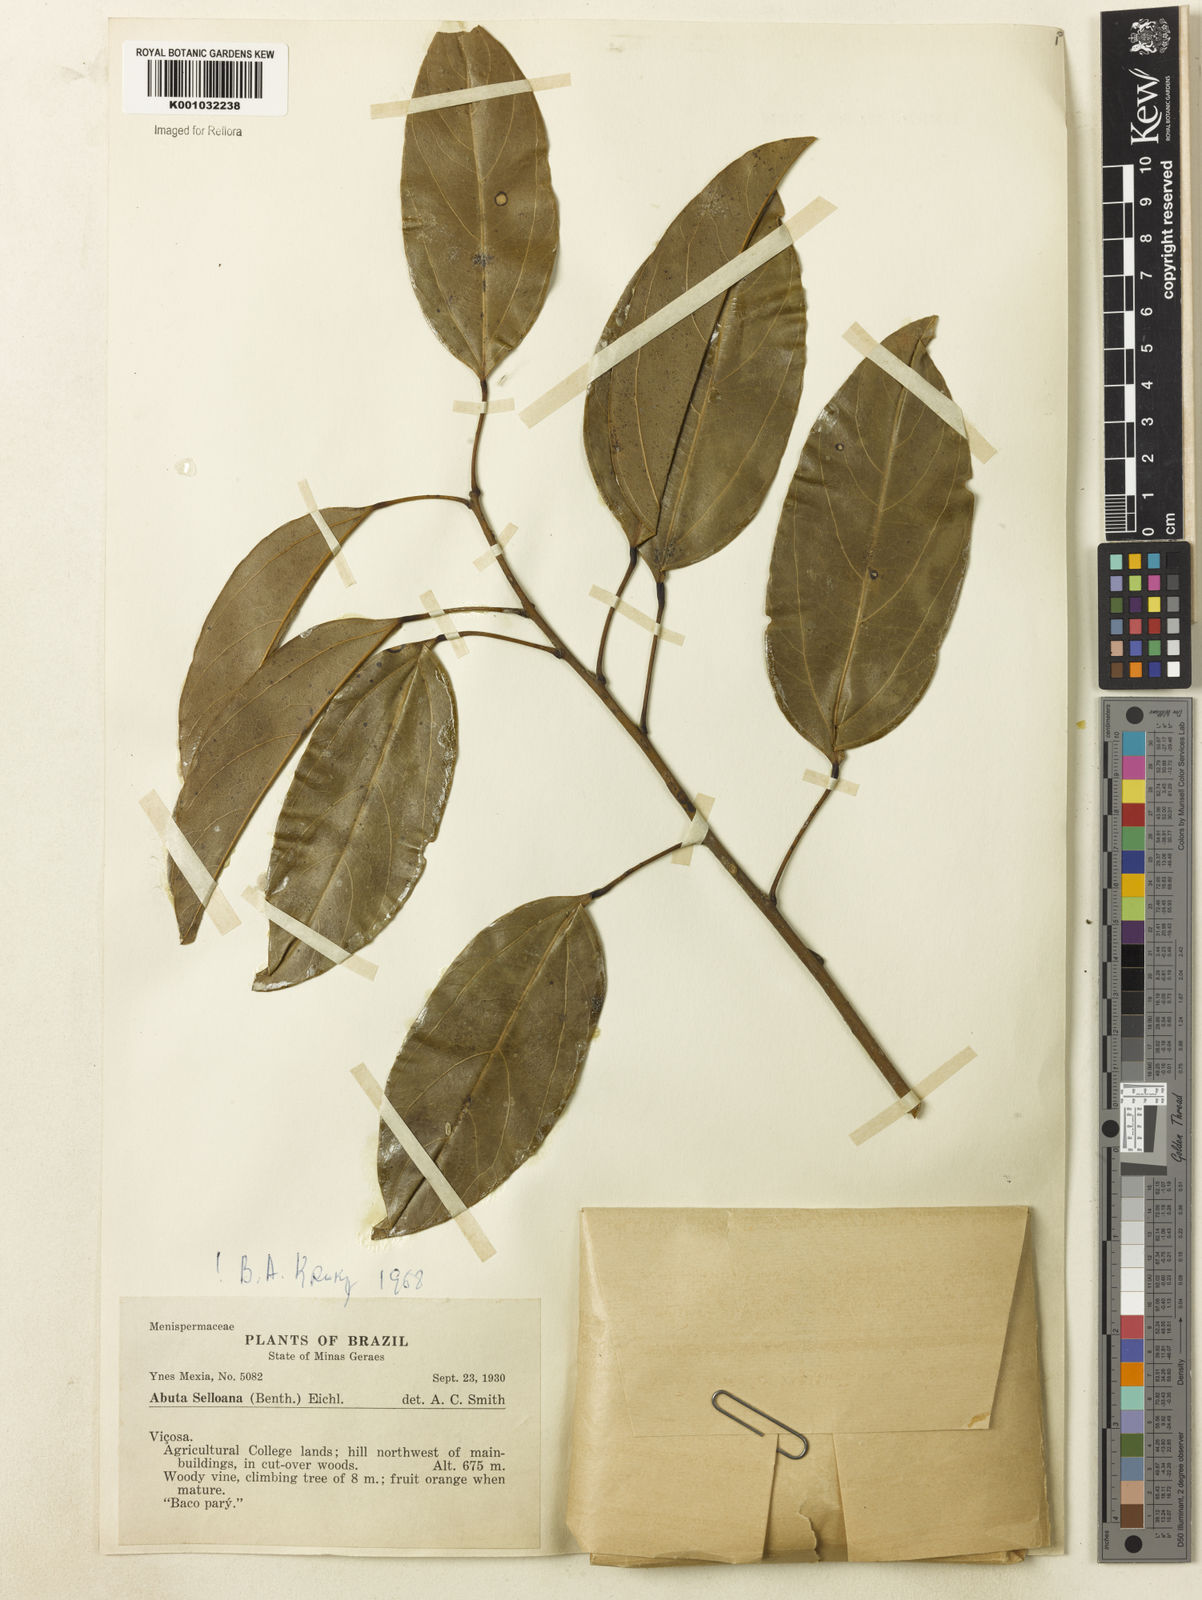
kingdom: Plantae
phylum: Tracheophyta
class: Magnoliopsida
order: Ranunculales
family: Menispermaceae
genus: Abuta
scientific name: Abuta selloana
